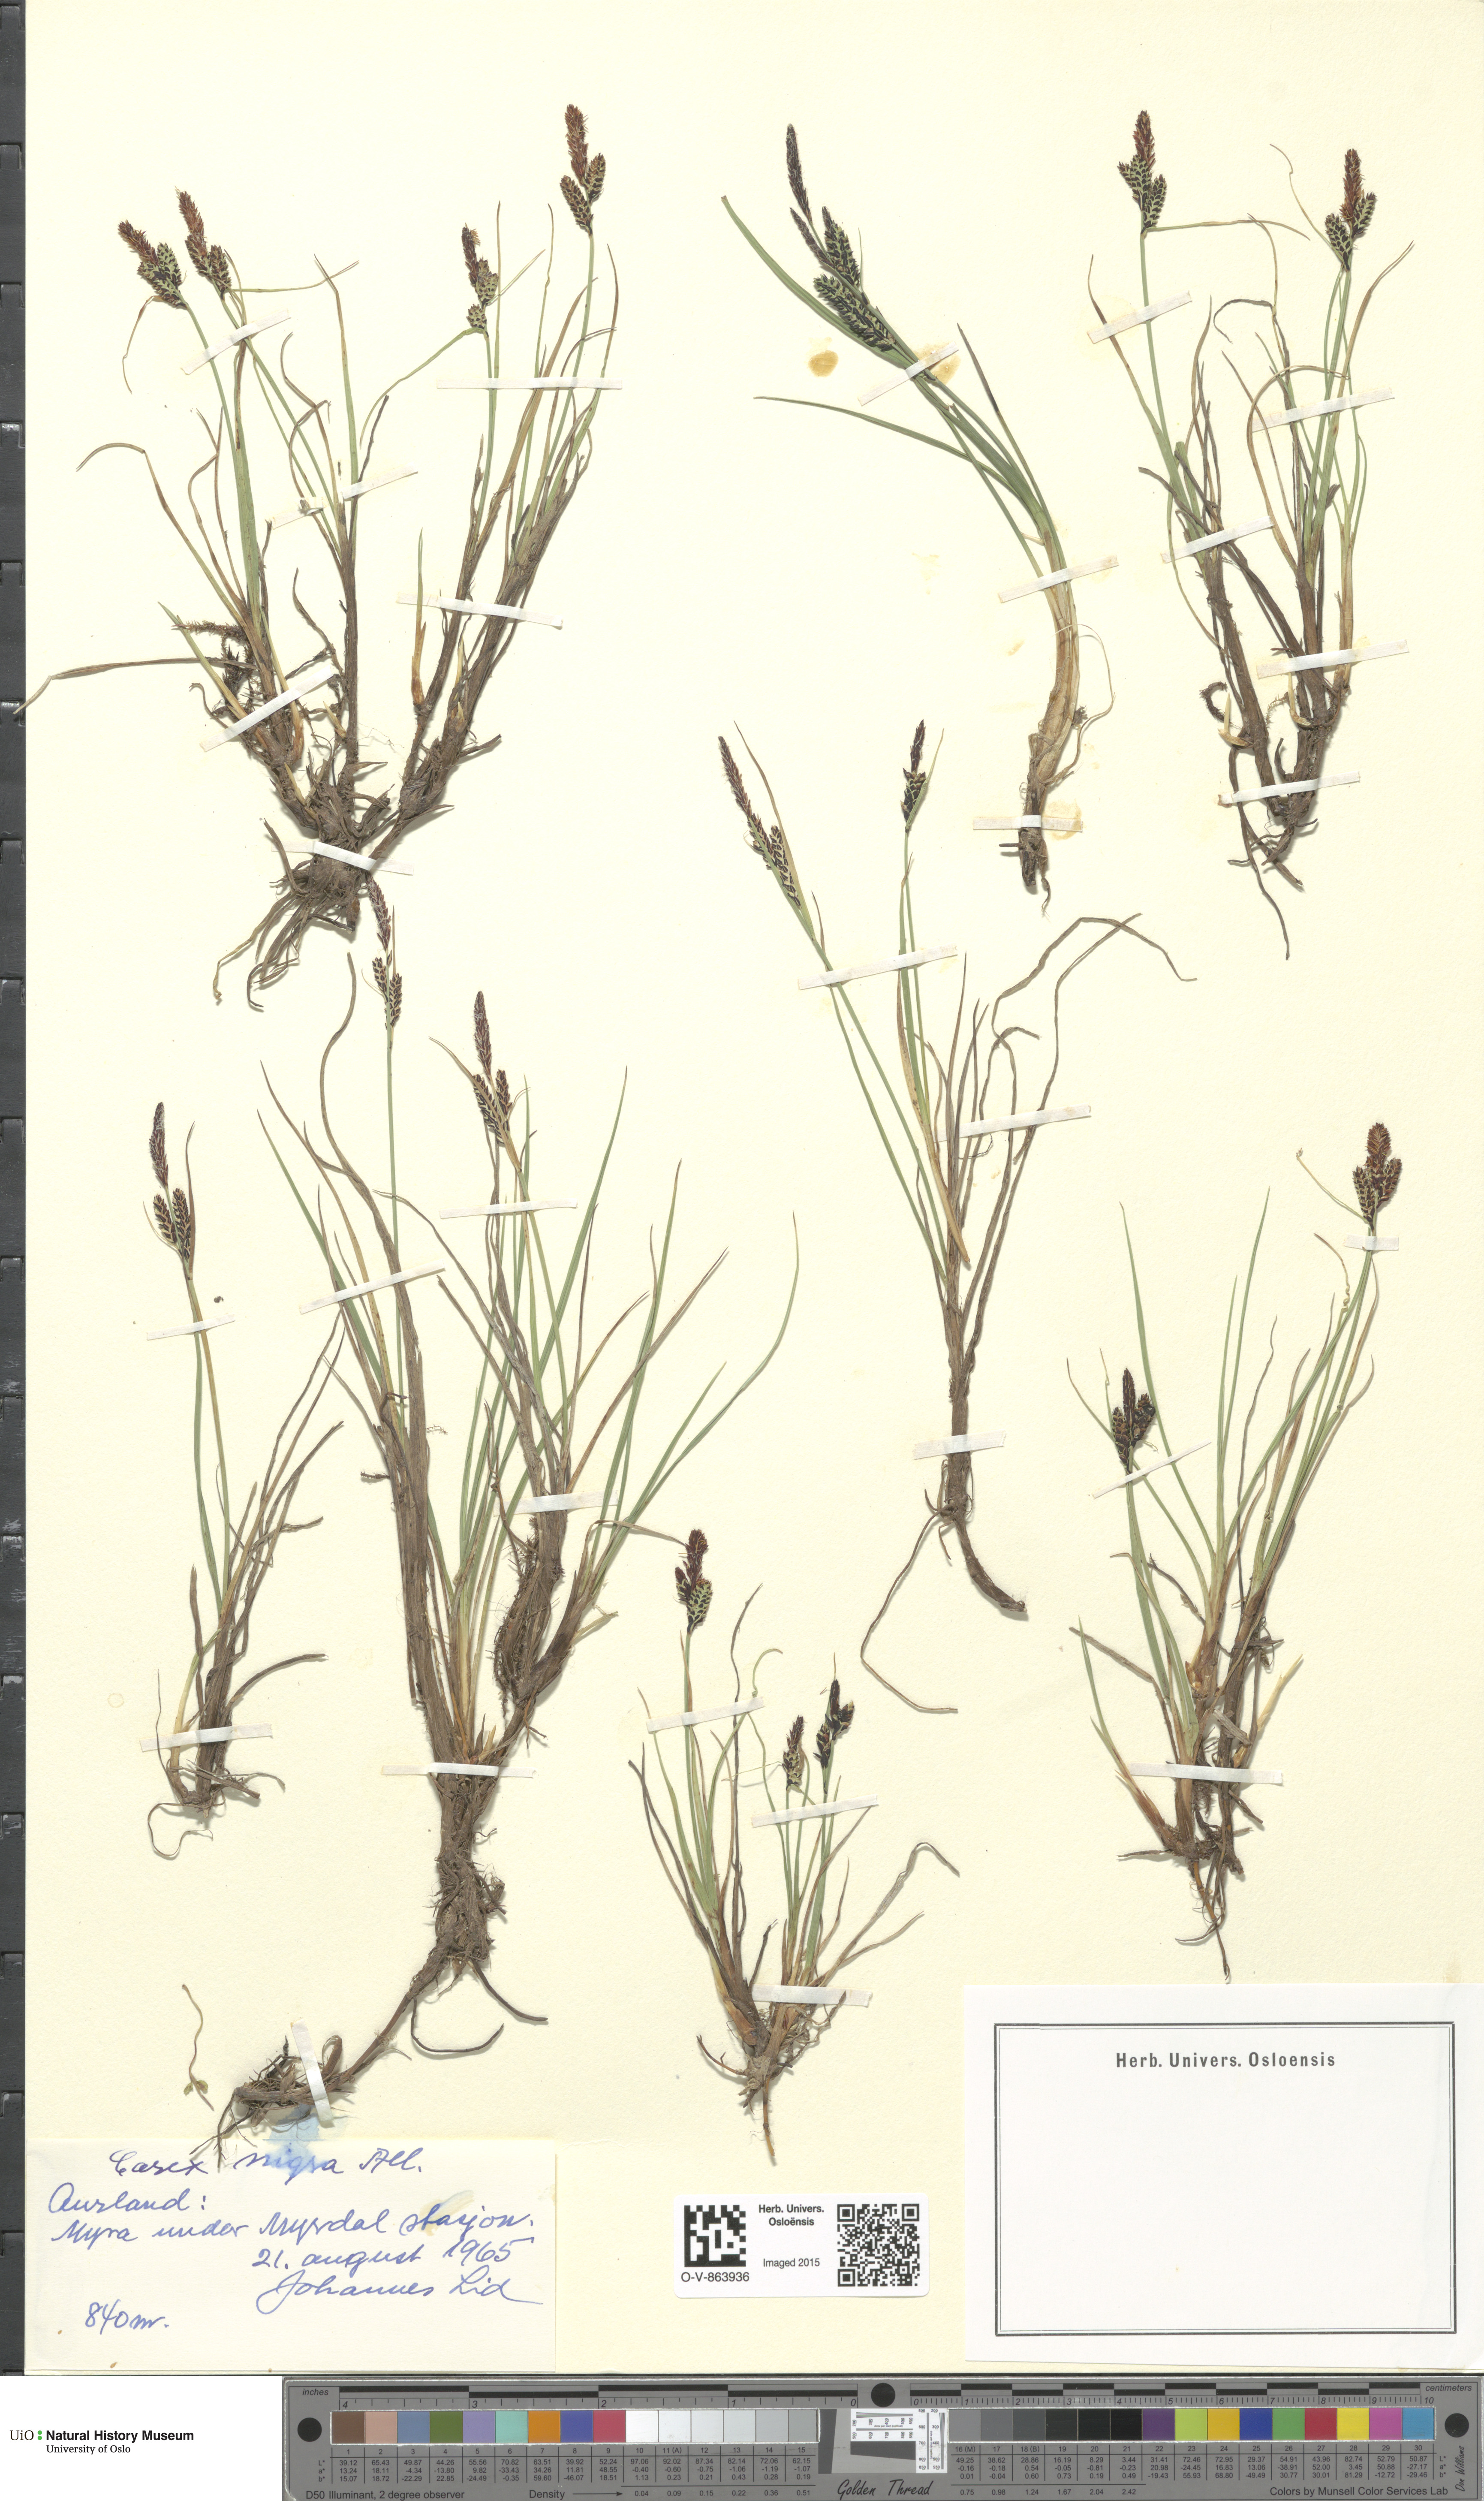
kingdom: Plantae
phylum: Tracheophyta
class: Liliopsida
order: Poales
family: Cyperaceae
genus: Carex
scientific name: Carex nigra
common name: Common sedge
